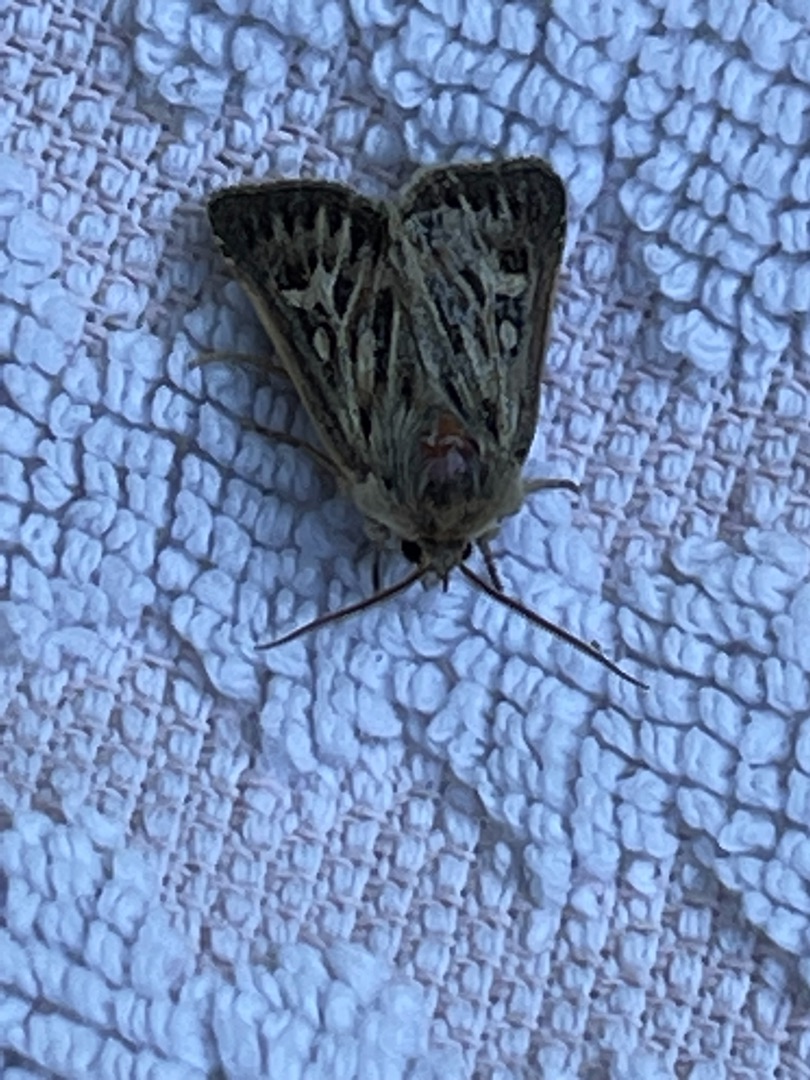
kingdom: Animalia
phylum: Arthropoda
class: Insecta
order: Lepidoptera
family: Noctuidae
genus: Cerapteryx
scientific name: Cerapteryx graminis
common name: Mosebunkeugle
